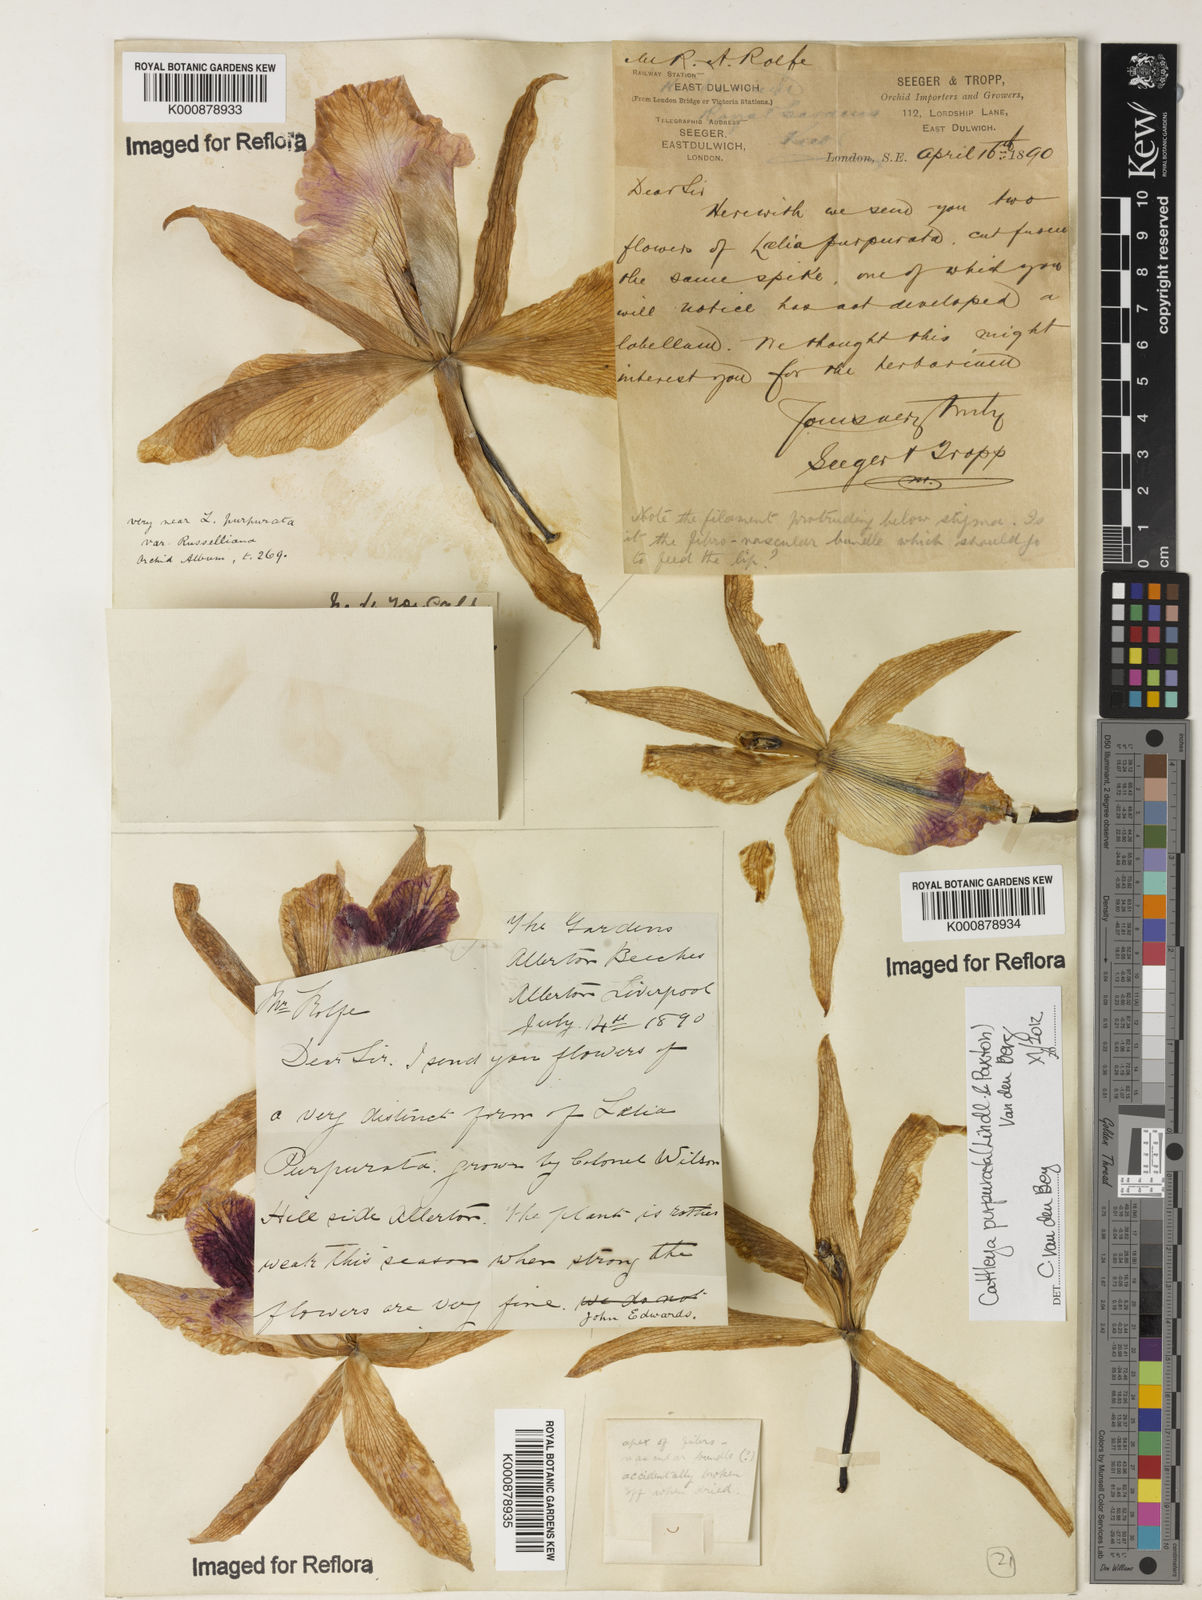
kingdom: Plantae
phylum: Tracheophyta
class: Liliopsida
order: Asparagales
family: Orchidaceae
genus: Cattleya
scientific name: Cattleya
